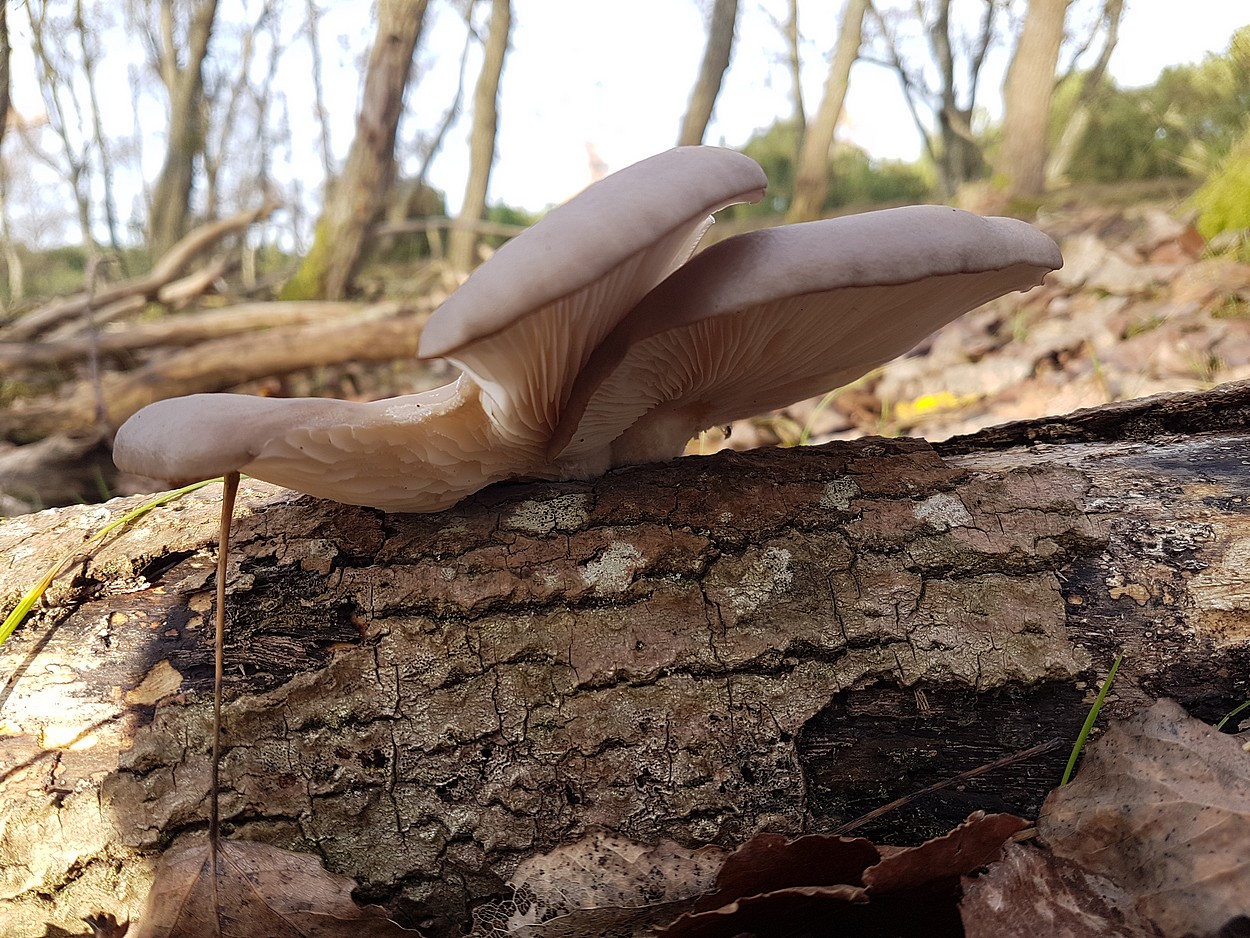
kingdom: Fungi
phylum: Basidiomycota
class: Agaricomycetes
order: Agaricales
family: Pleurotaceae
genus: Pleurotus
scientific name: Pleurotus ostreatus
